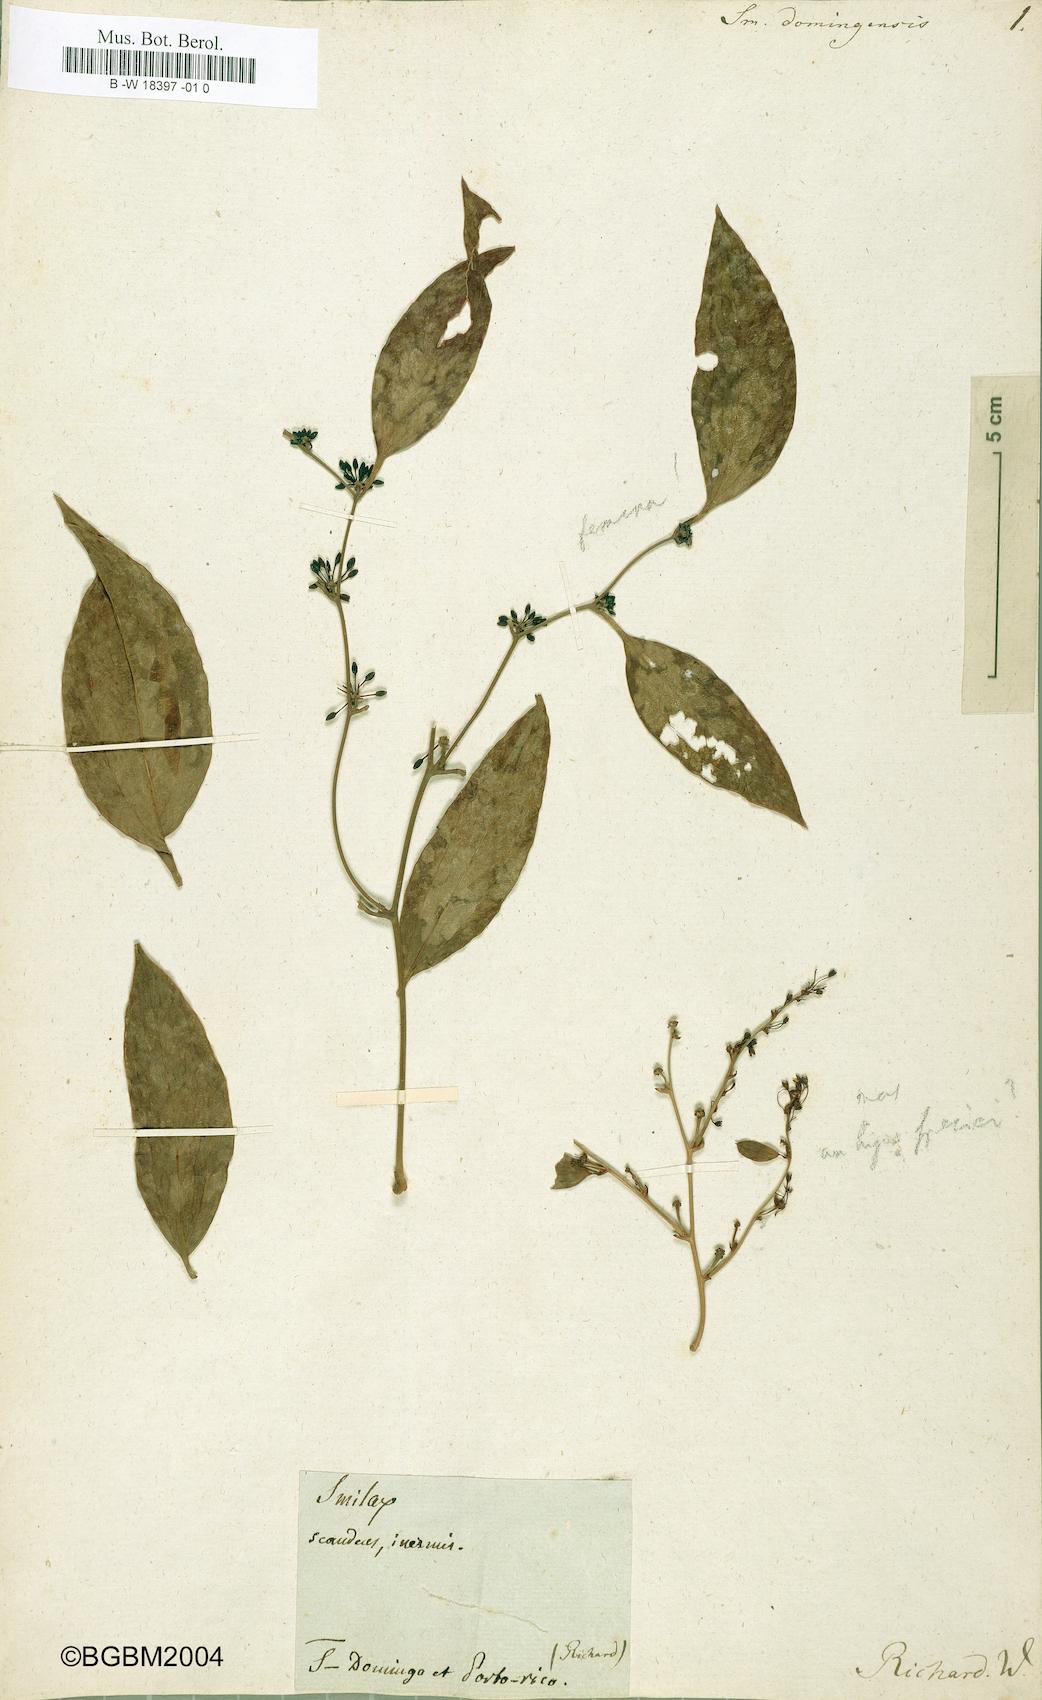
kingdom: Plantae
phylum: Tracheophyta
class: Liliopsida
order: Liliales
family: Smilacaceae
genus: Smilax
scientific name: Smilax domingensis
